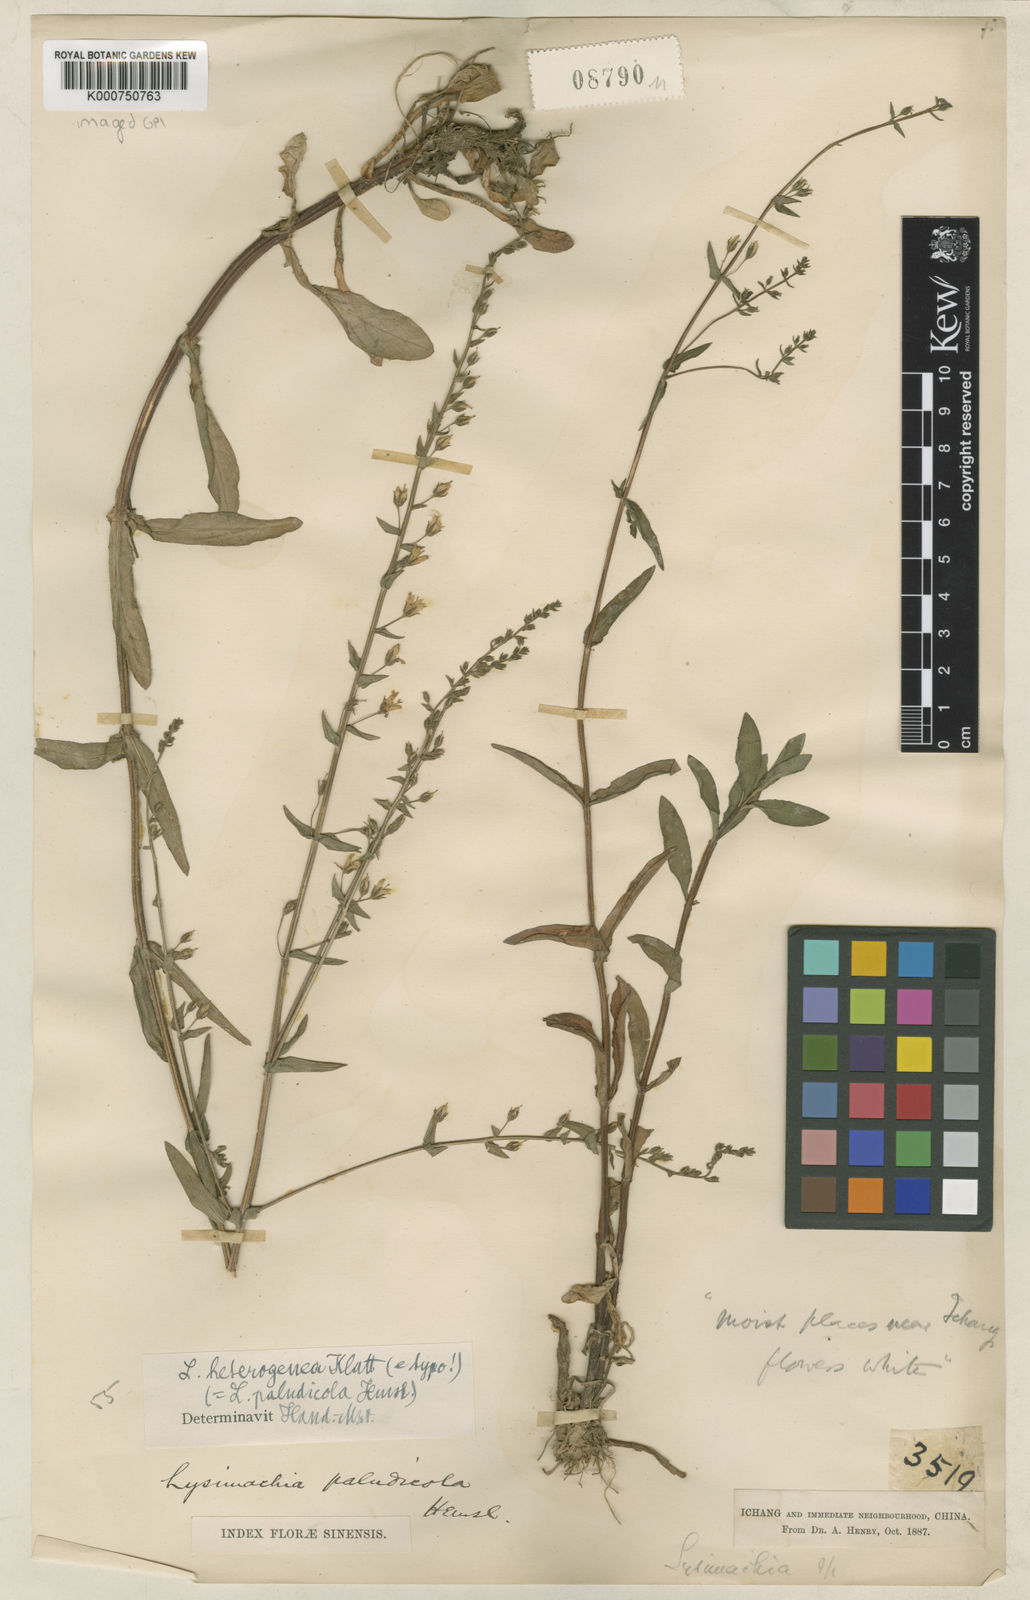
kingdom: Plantae
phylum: Tracheophyta
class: Magnoliopsida
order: Ericales
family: Primulaceae
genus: Lysimachia
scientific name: Lysimachia heterogenea
